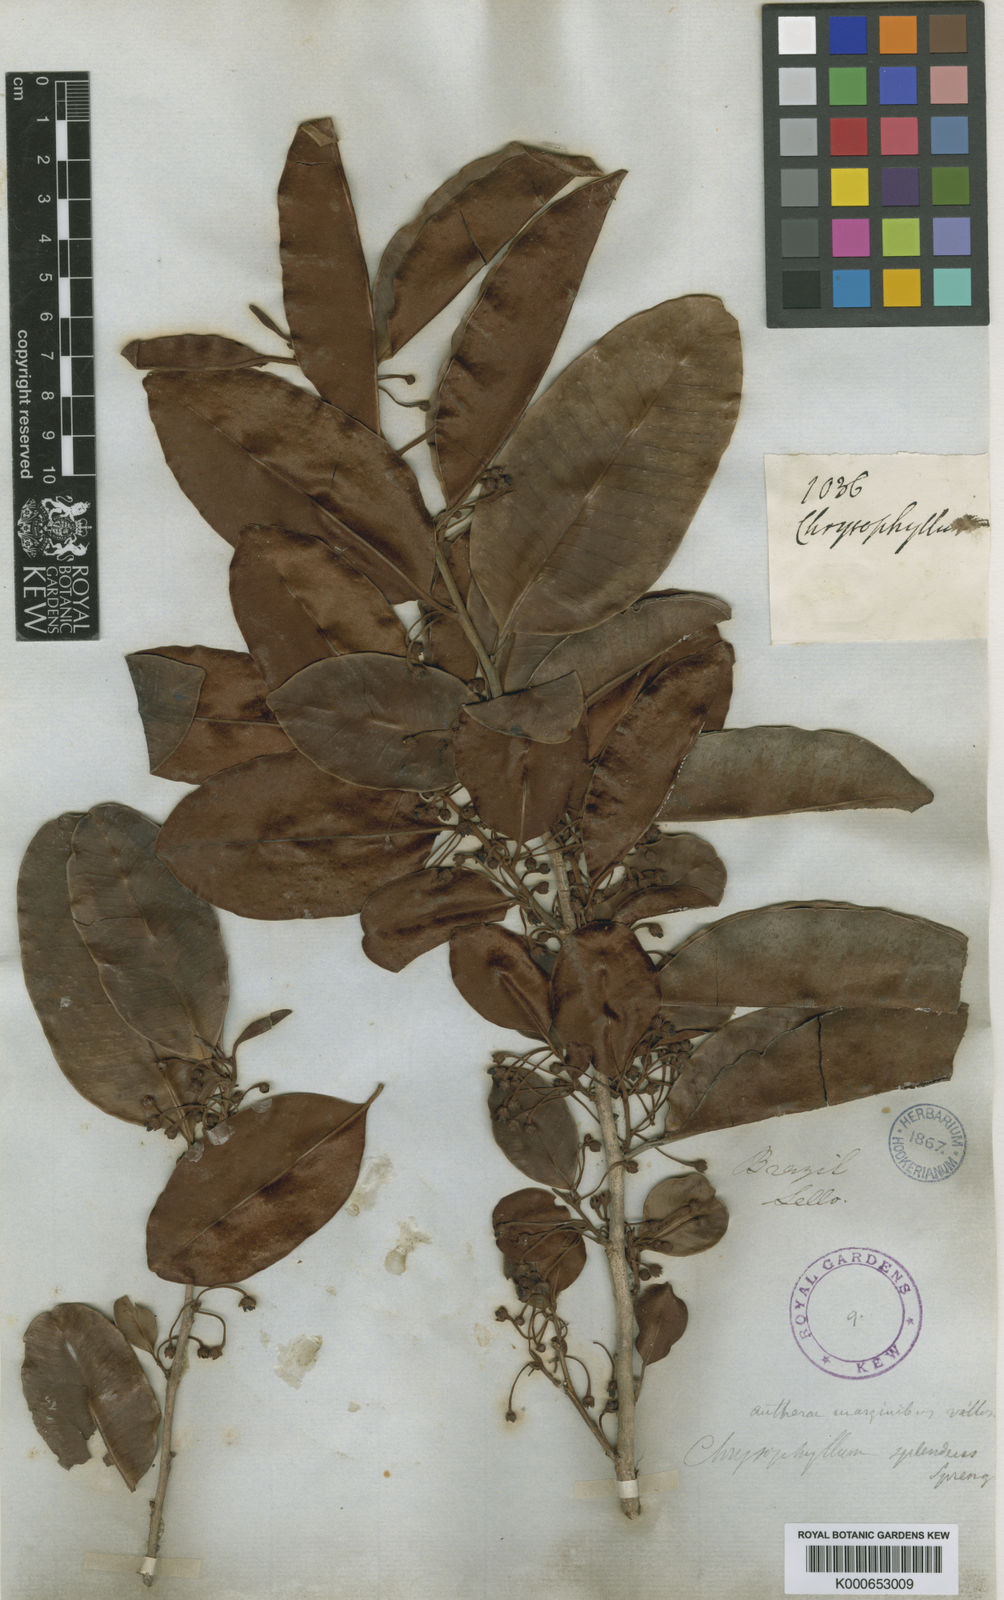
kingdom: Plantae
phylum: Tracheophyta
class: Magnoliopsida
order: Ericales
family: Sapotaceae
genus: Chrysophyllum
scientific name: Chrysophyllum splendens
